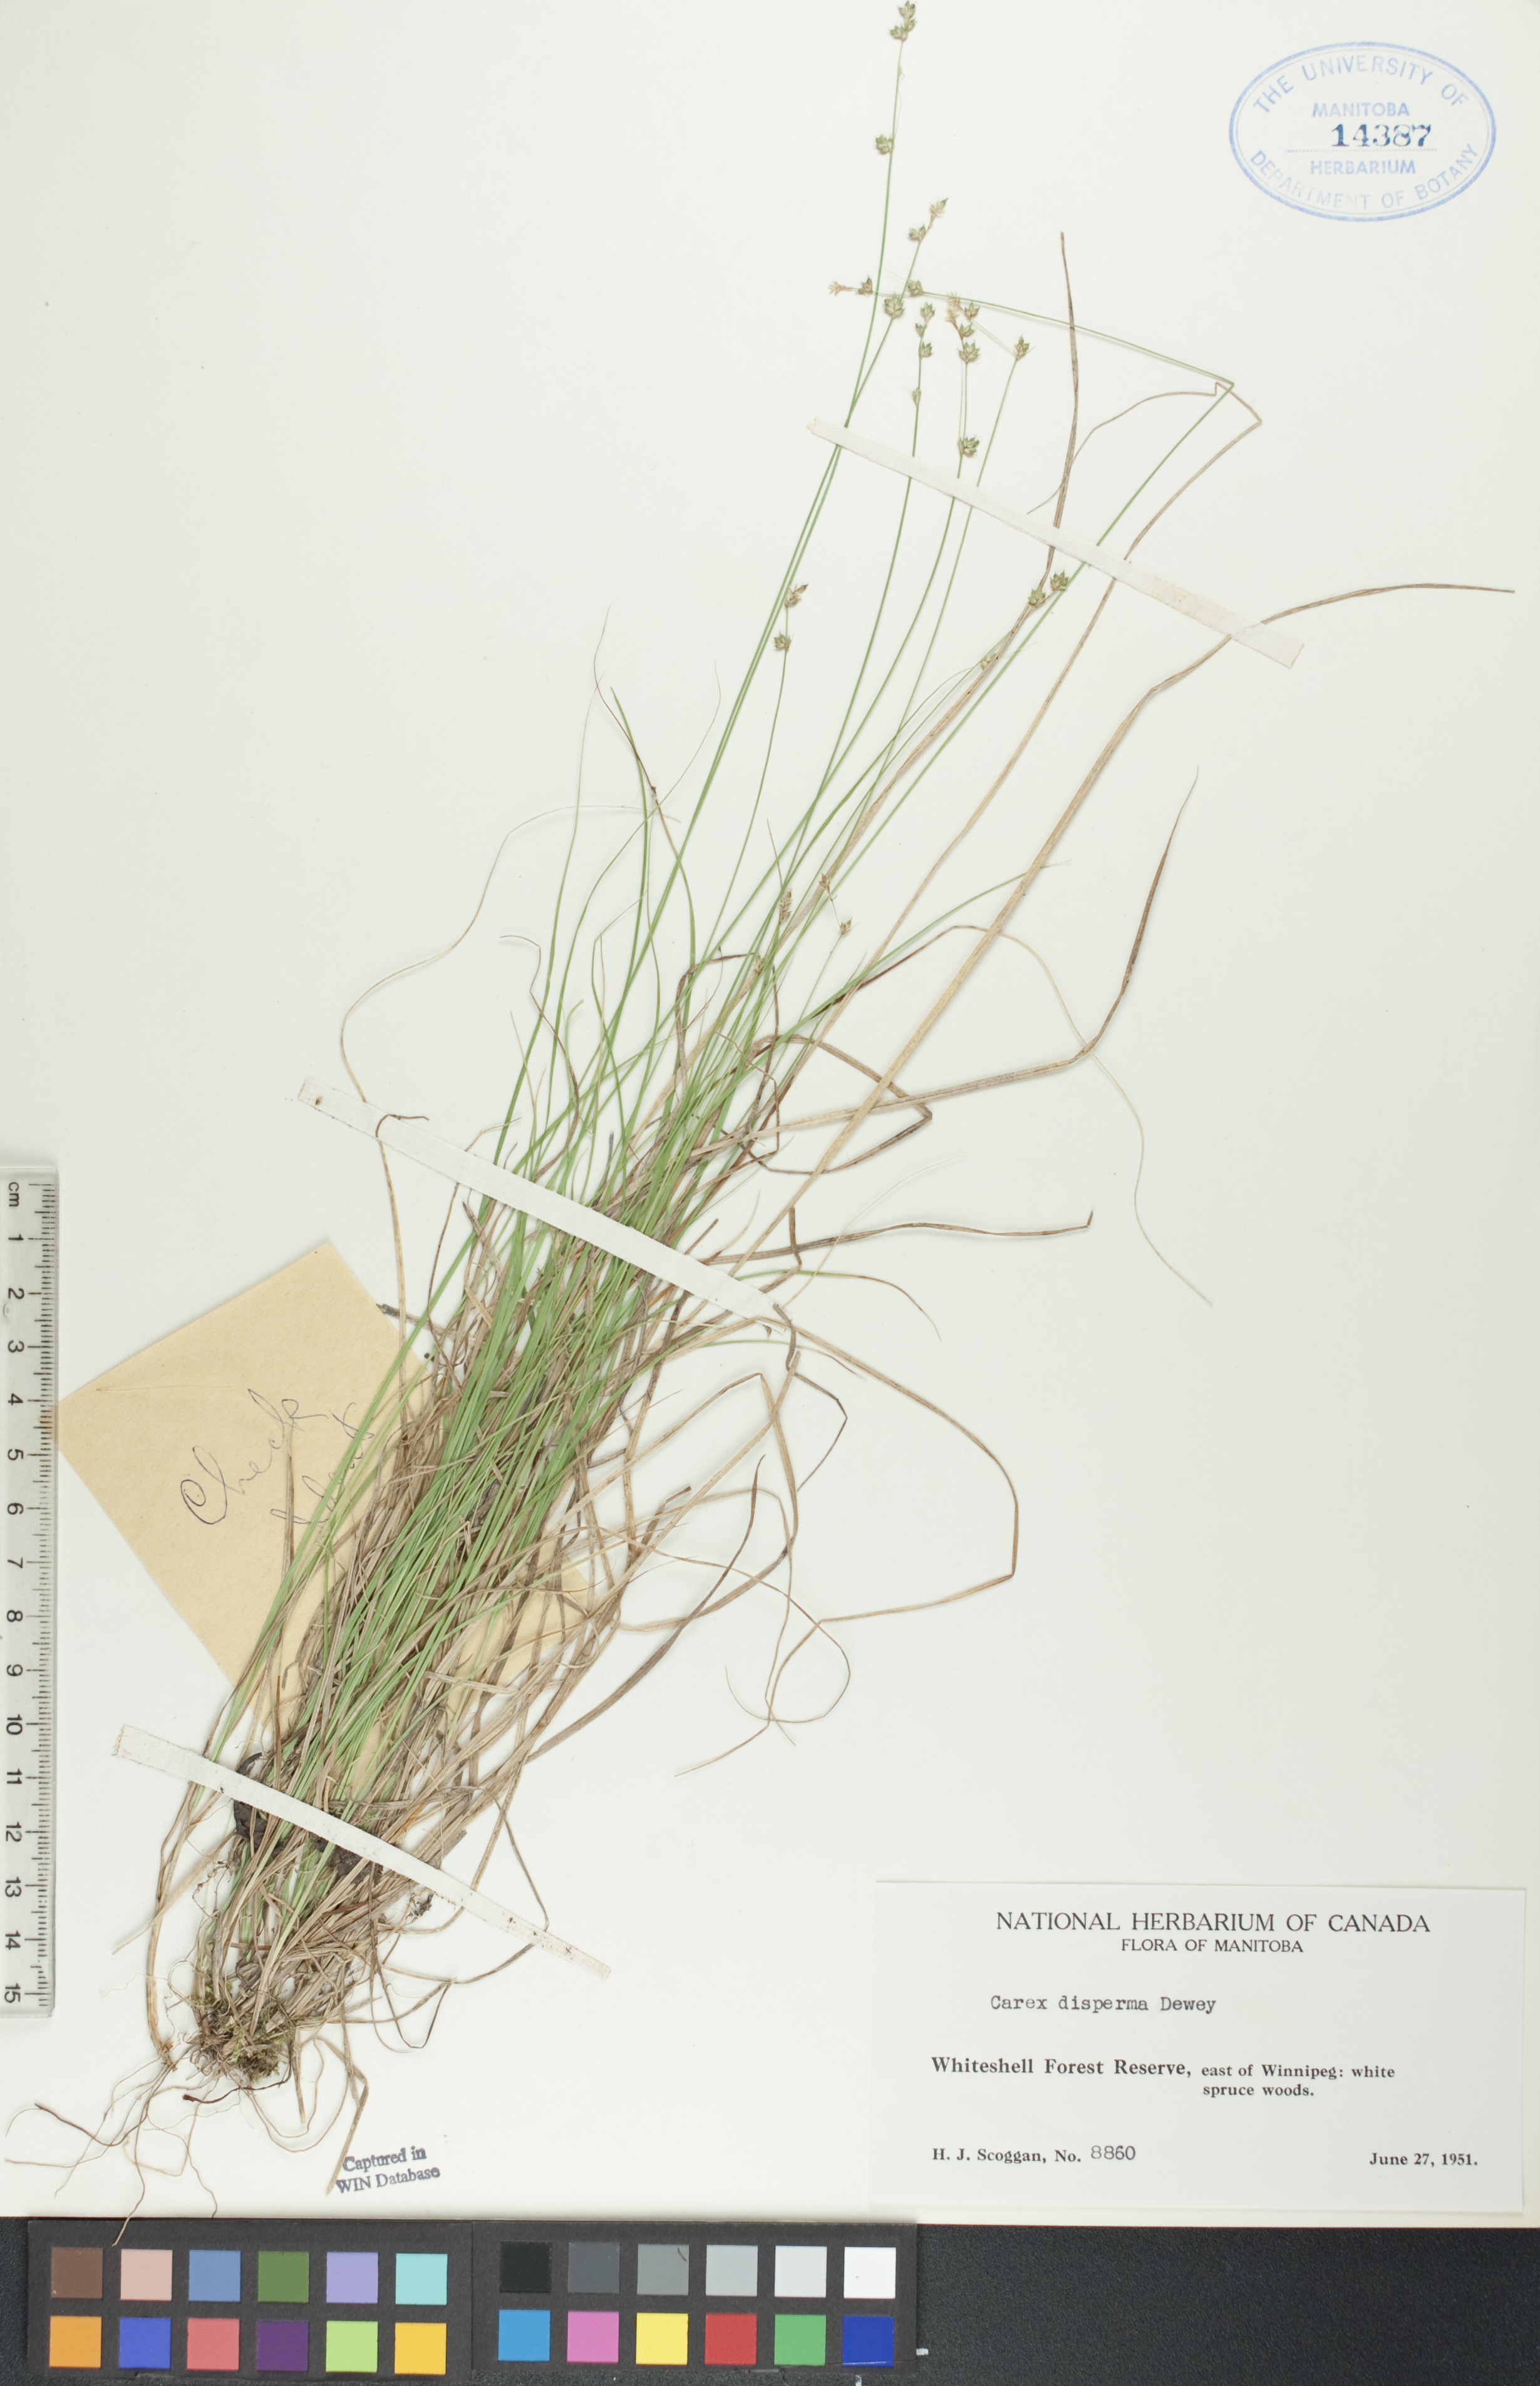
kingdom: Plantae
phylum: Tracheophyta
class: Liliopsida
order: Poales
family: Cyperaceae
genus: Carex
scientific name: Carex disperma
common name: Short-leaved sedge
